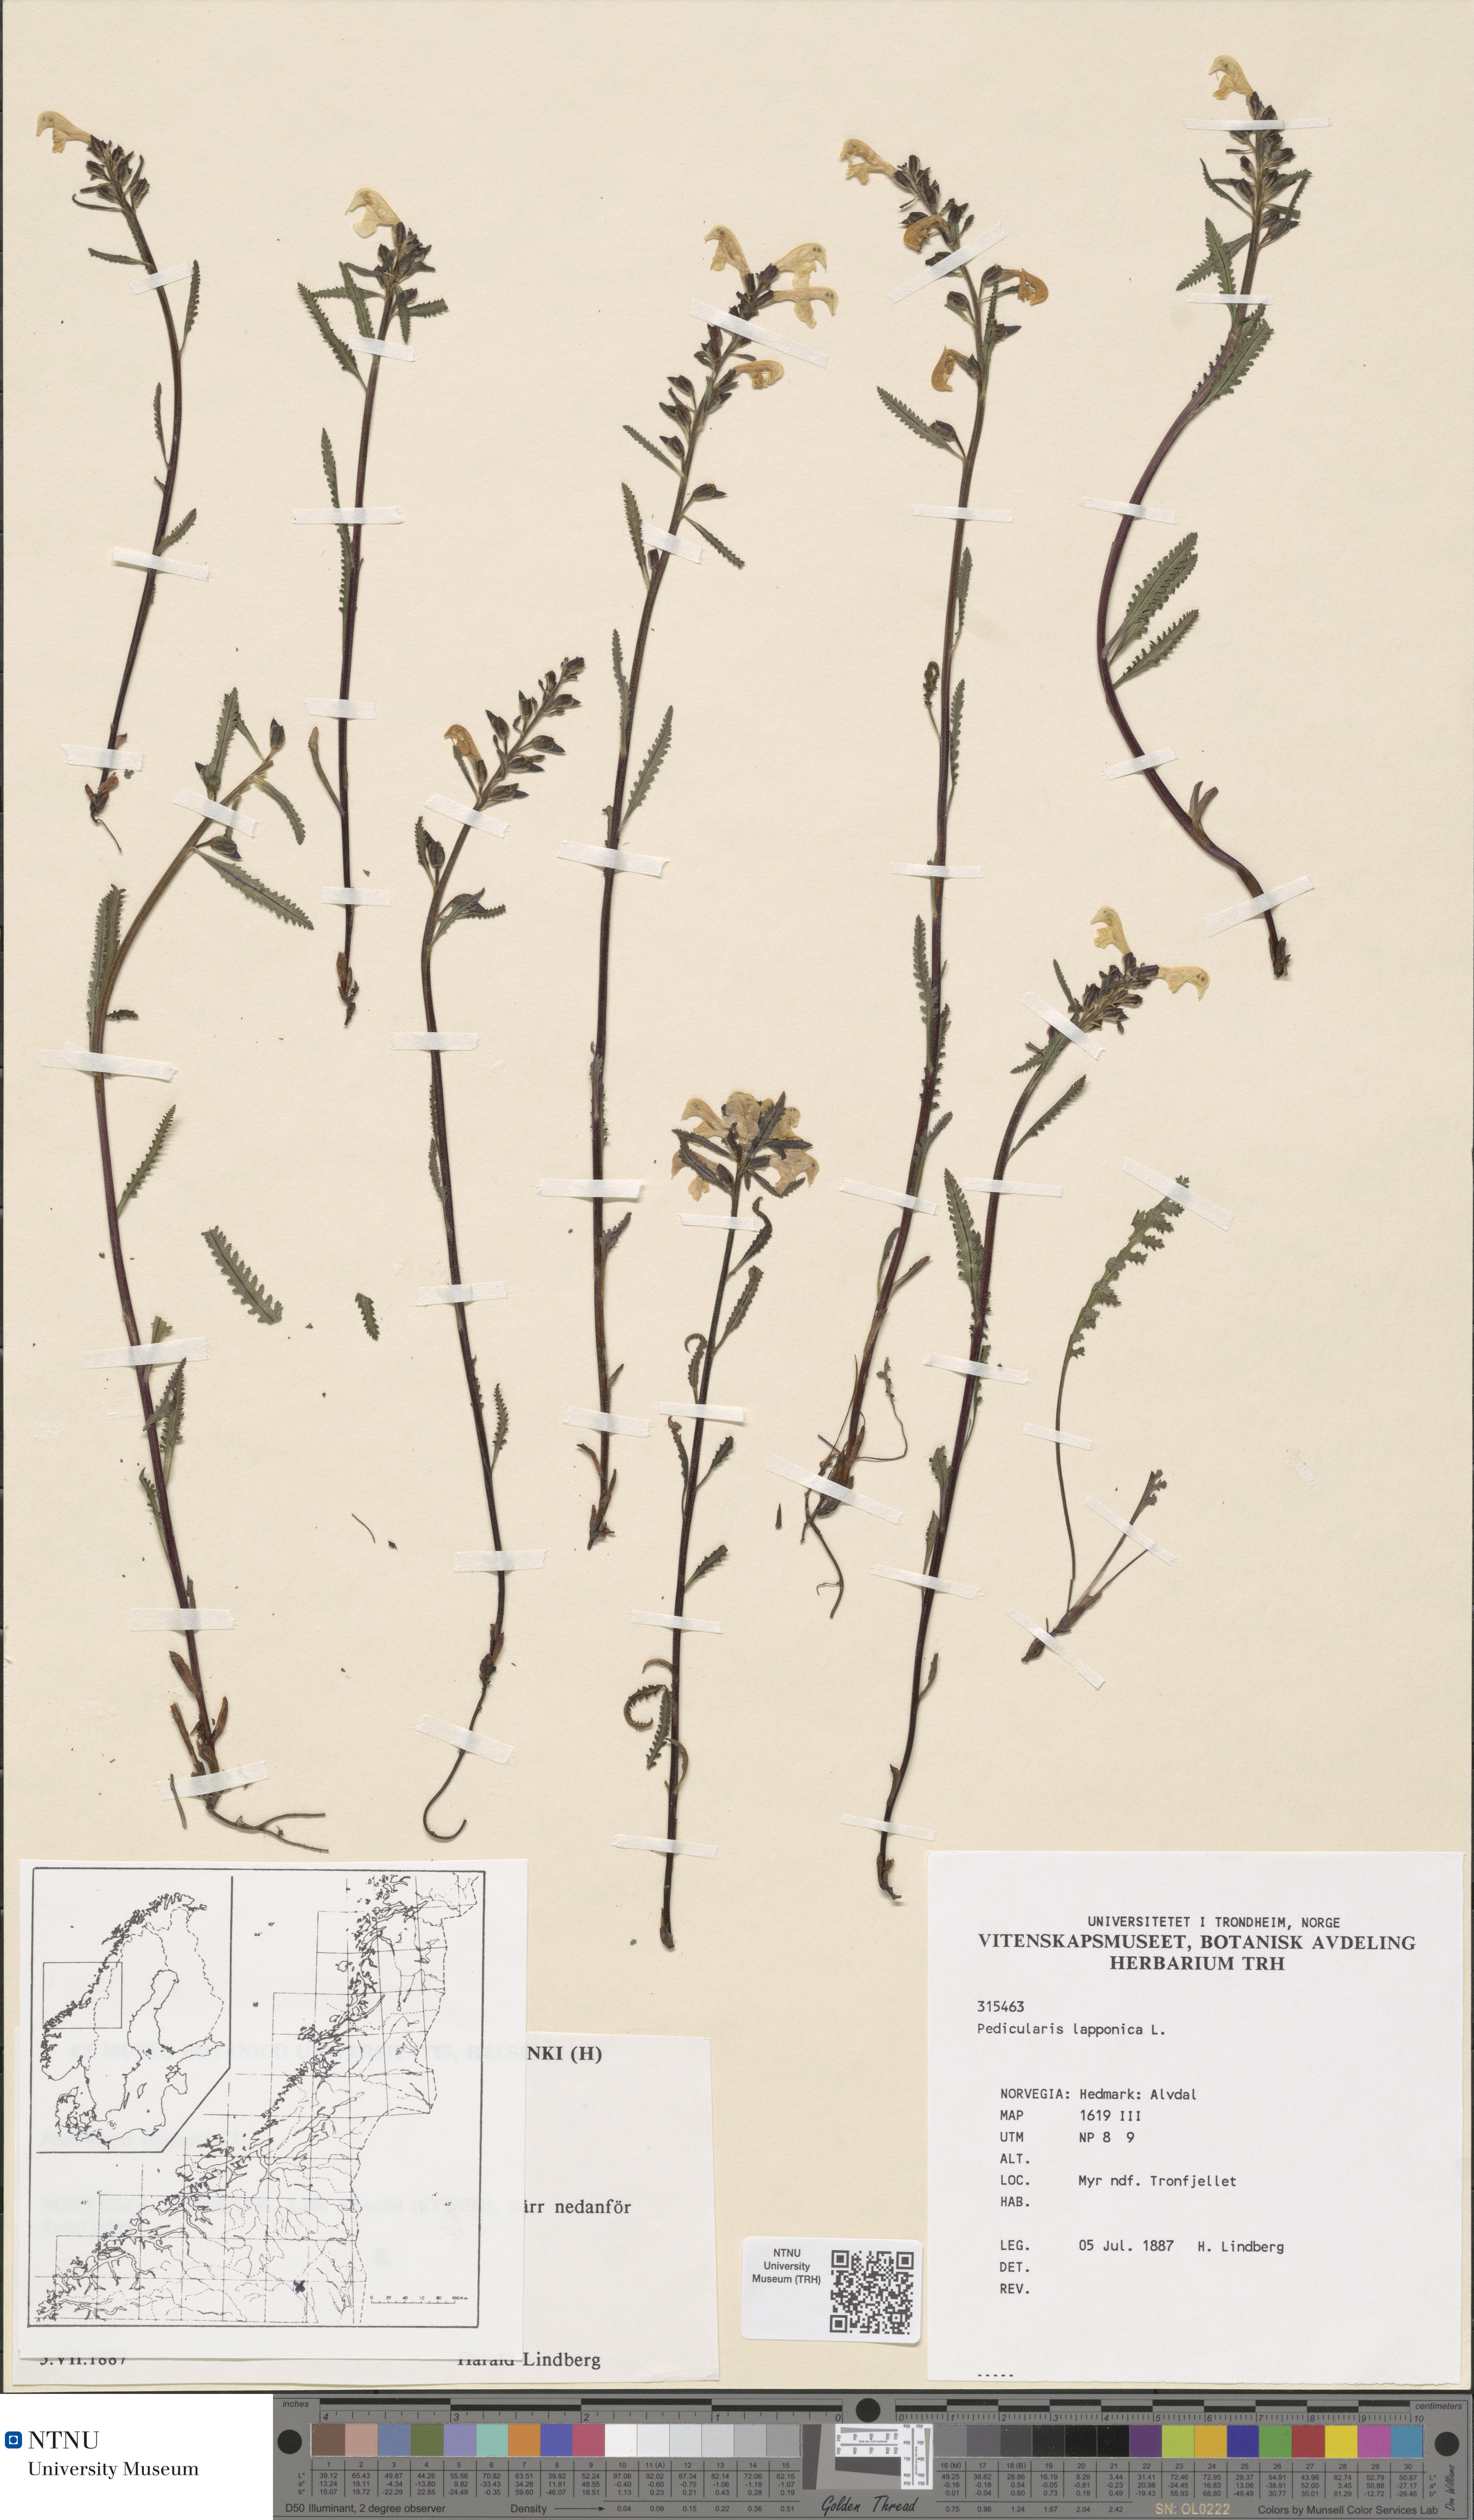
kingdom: Plantae
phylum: Tracheophyta
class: Magnoliopsida
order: Lamiales
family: Orobanchaceae
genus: Pedicularis
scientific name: Pedicularis lapponica
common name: Lapland lousewort
